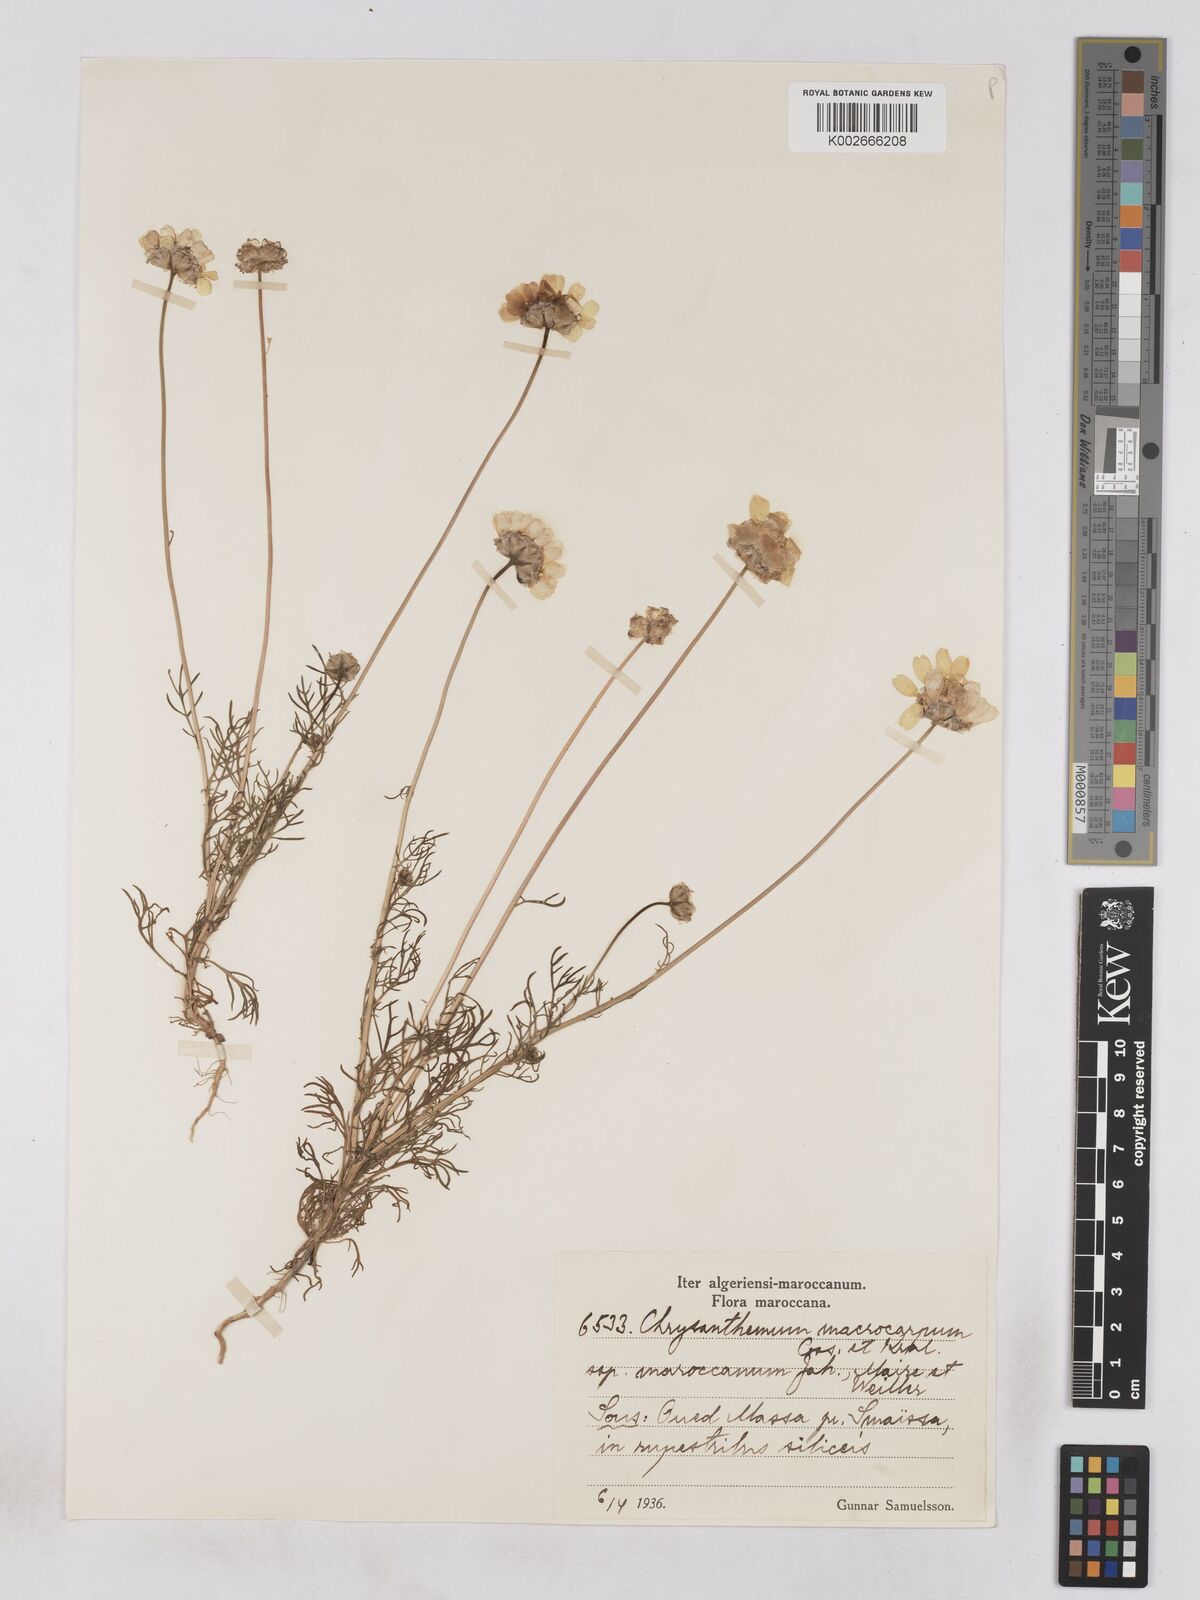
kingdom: Plantae
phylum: Tracheophyta
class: Magnoliopsida
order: Asterales
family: Asteraceae
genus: Endopappus
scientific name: Endopappus
